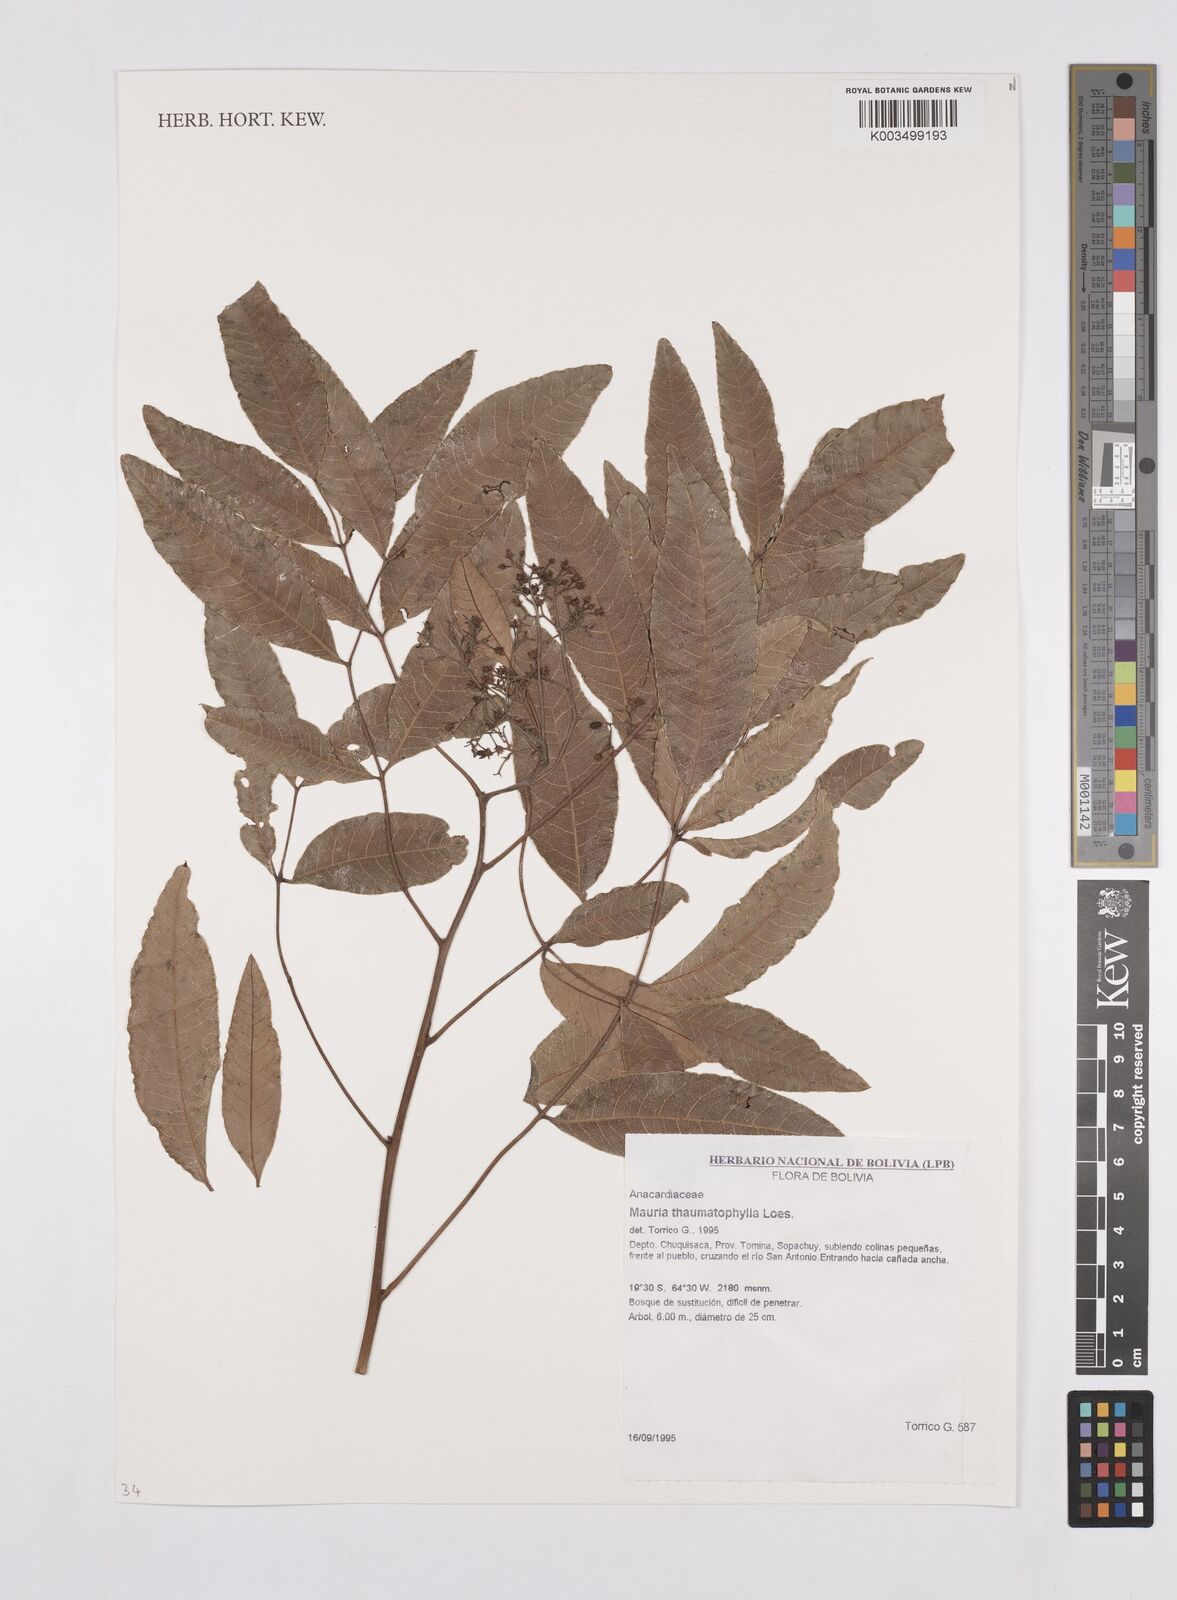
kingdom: Plantae
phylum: Tracheophyta
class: Magnoliopsida
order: Sapindales
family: Anacardiaceae
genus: Mauria
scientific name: Mauria thaumatophylla
